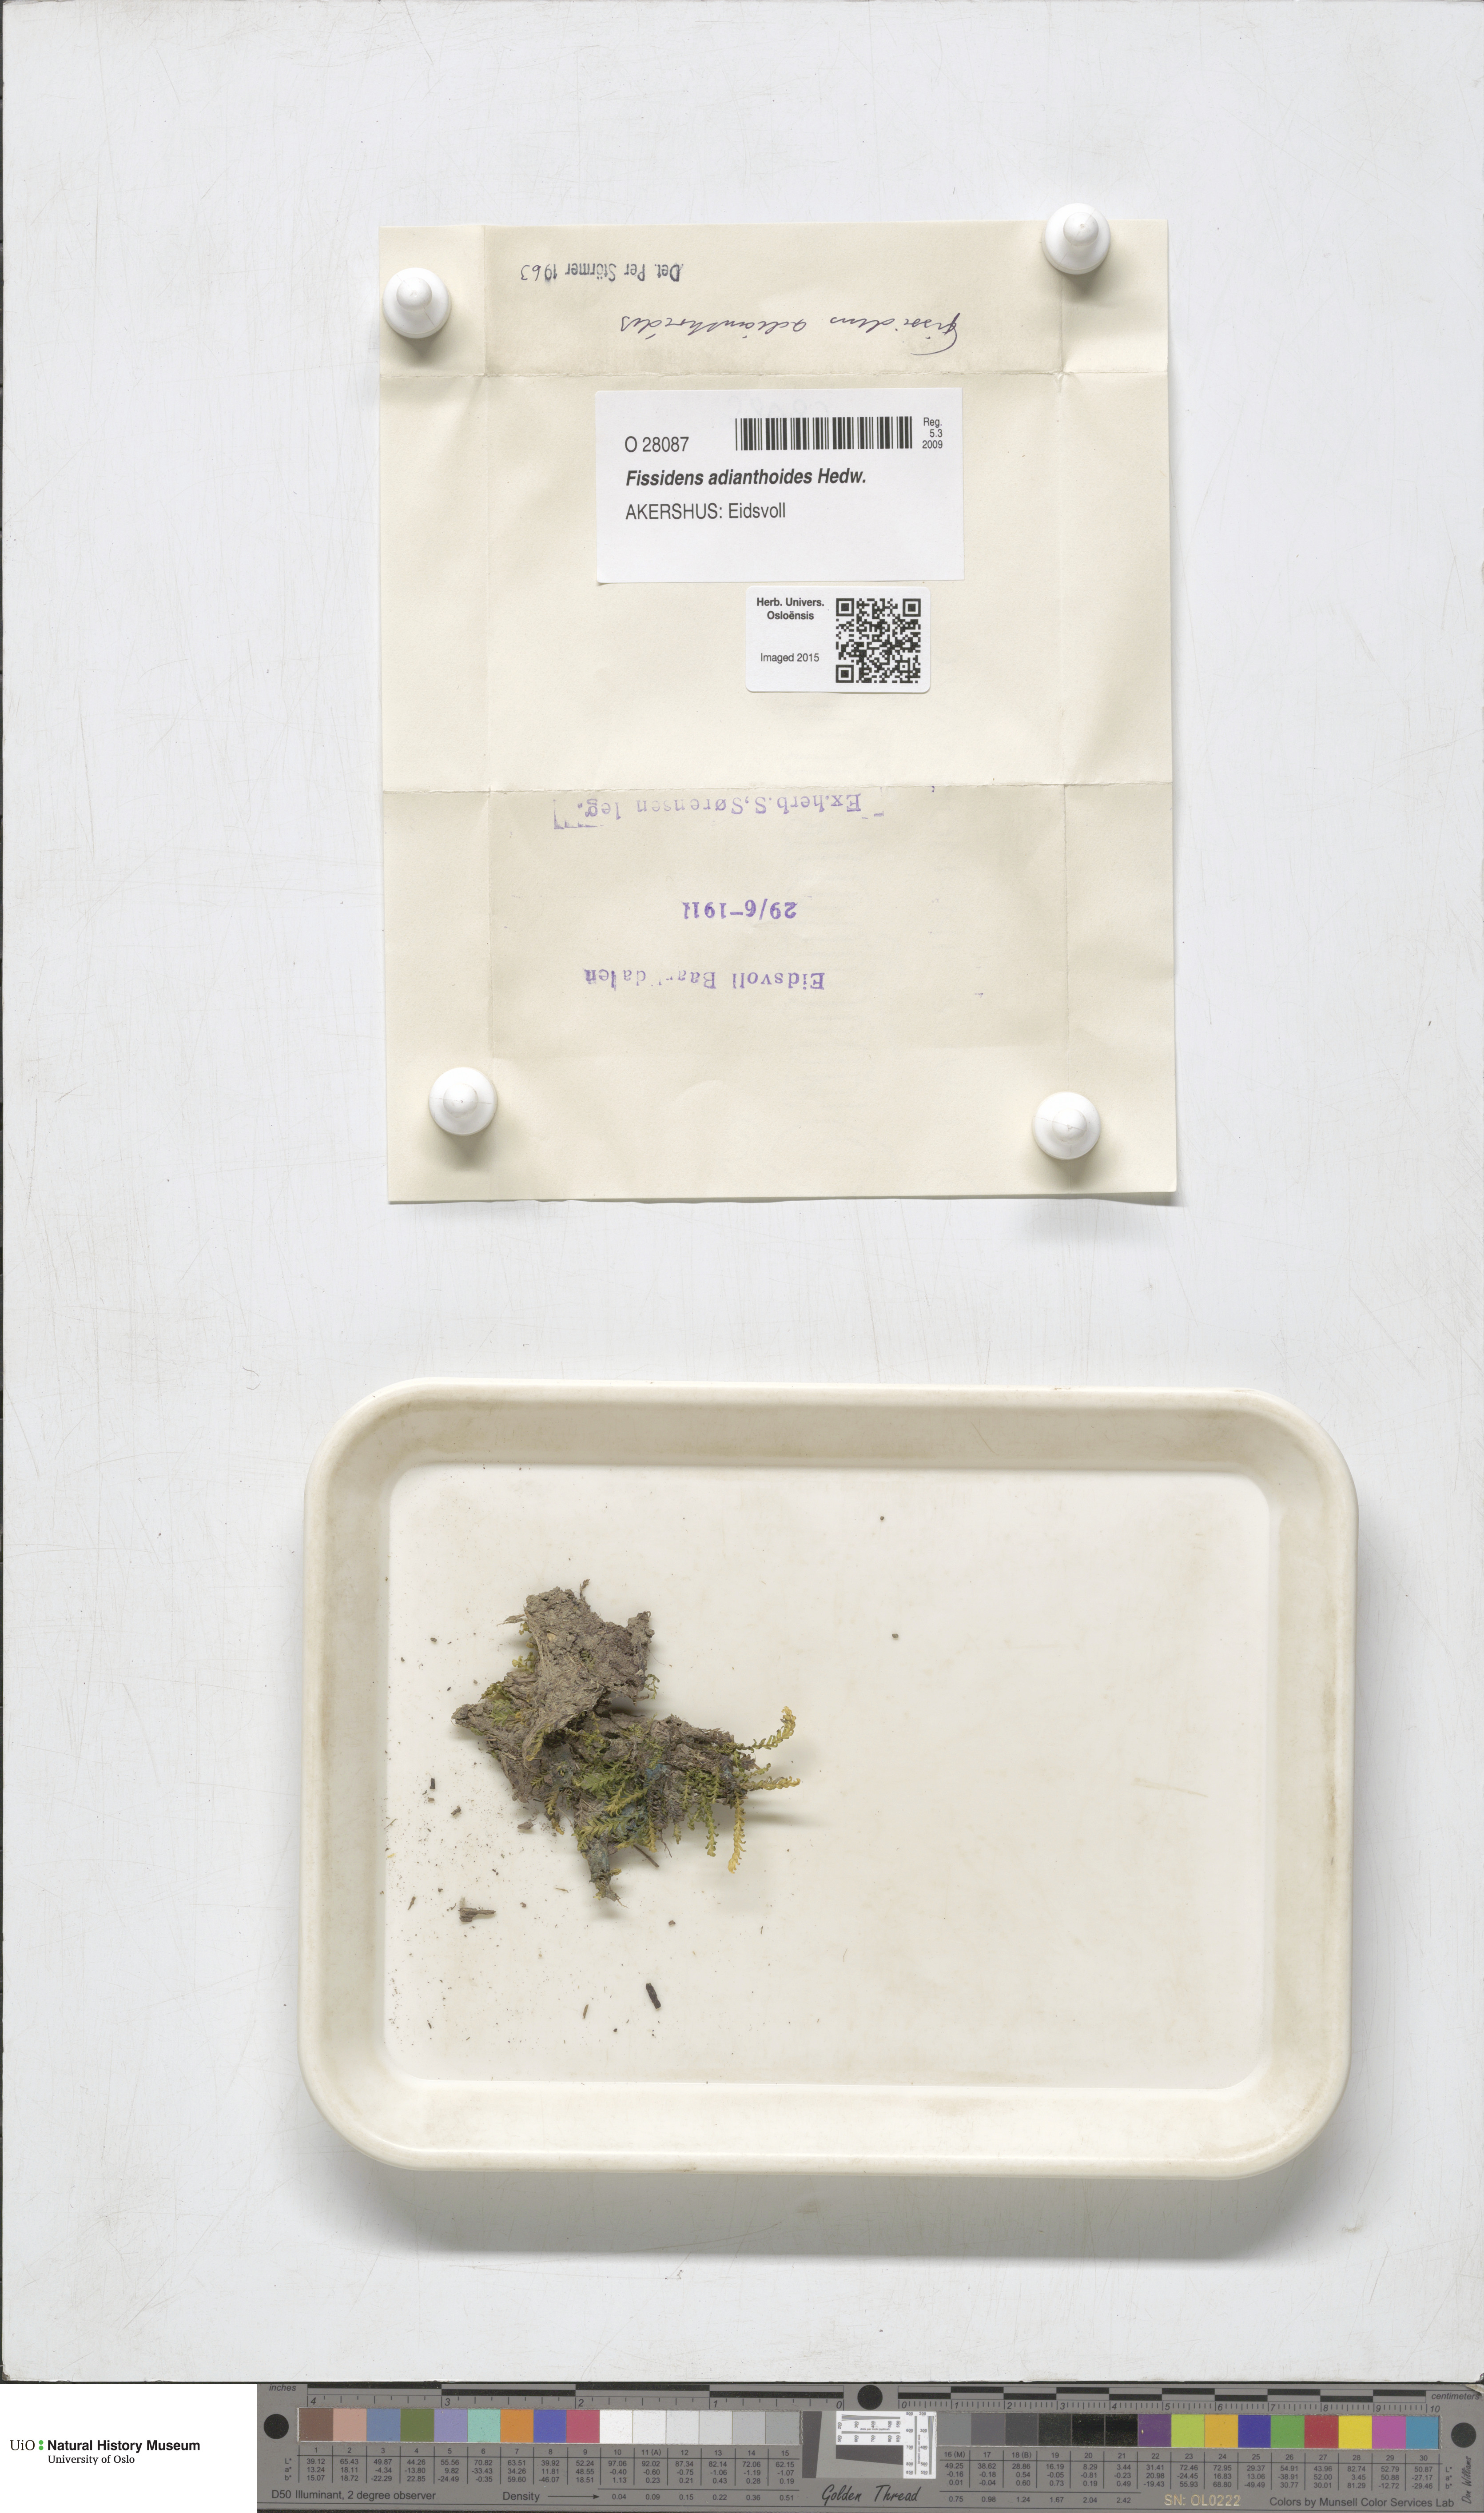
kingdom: Plantae
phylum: Bryophyta
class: Bryopsida
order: Dicranales
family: Fissidentaceae
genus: Fissidens
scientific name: Fissidens adianthoides
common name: Maidenhair pocket moss
